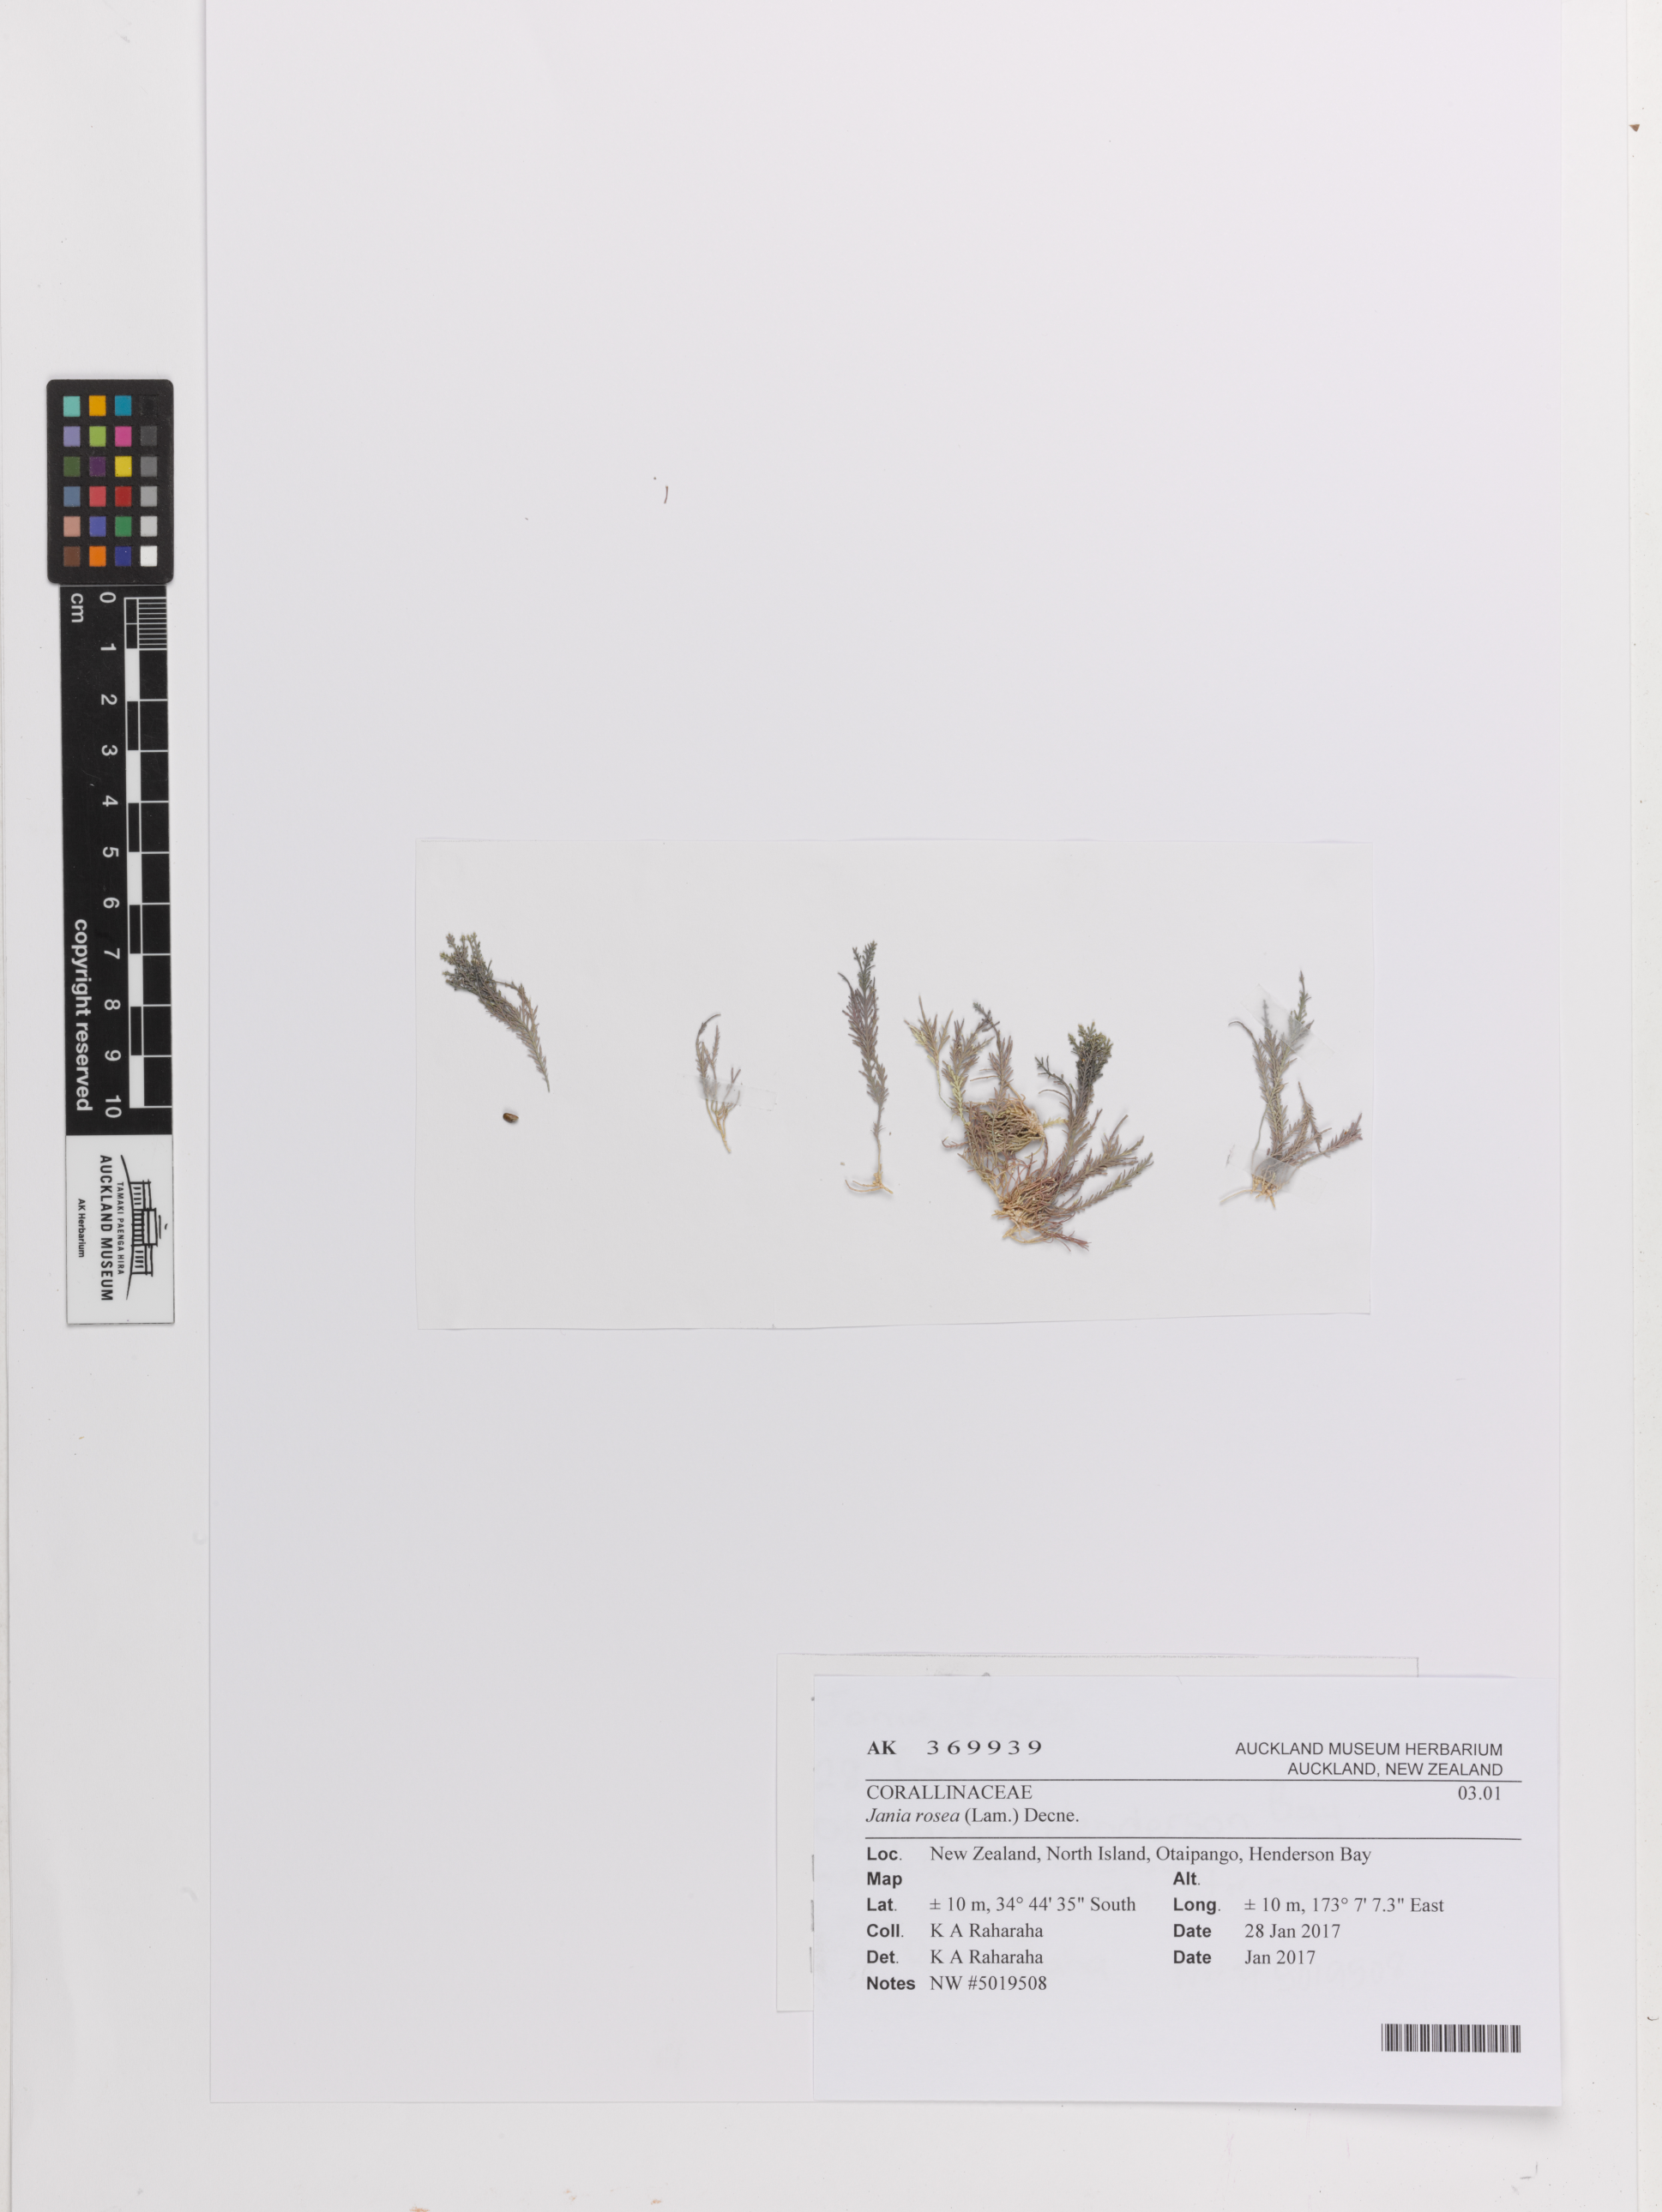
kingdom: Plantae
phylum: Rhodophyta
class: Florideophyceae
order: Corallinales
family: Corallinaceae
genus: Jania
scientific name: Jania rosea
